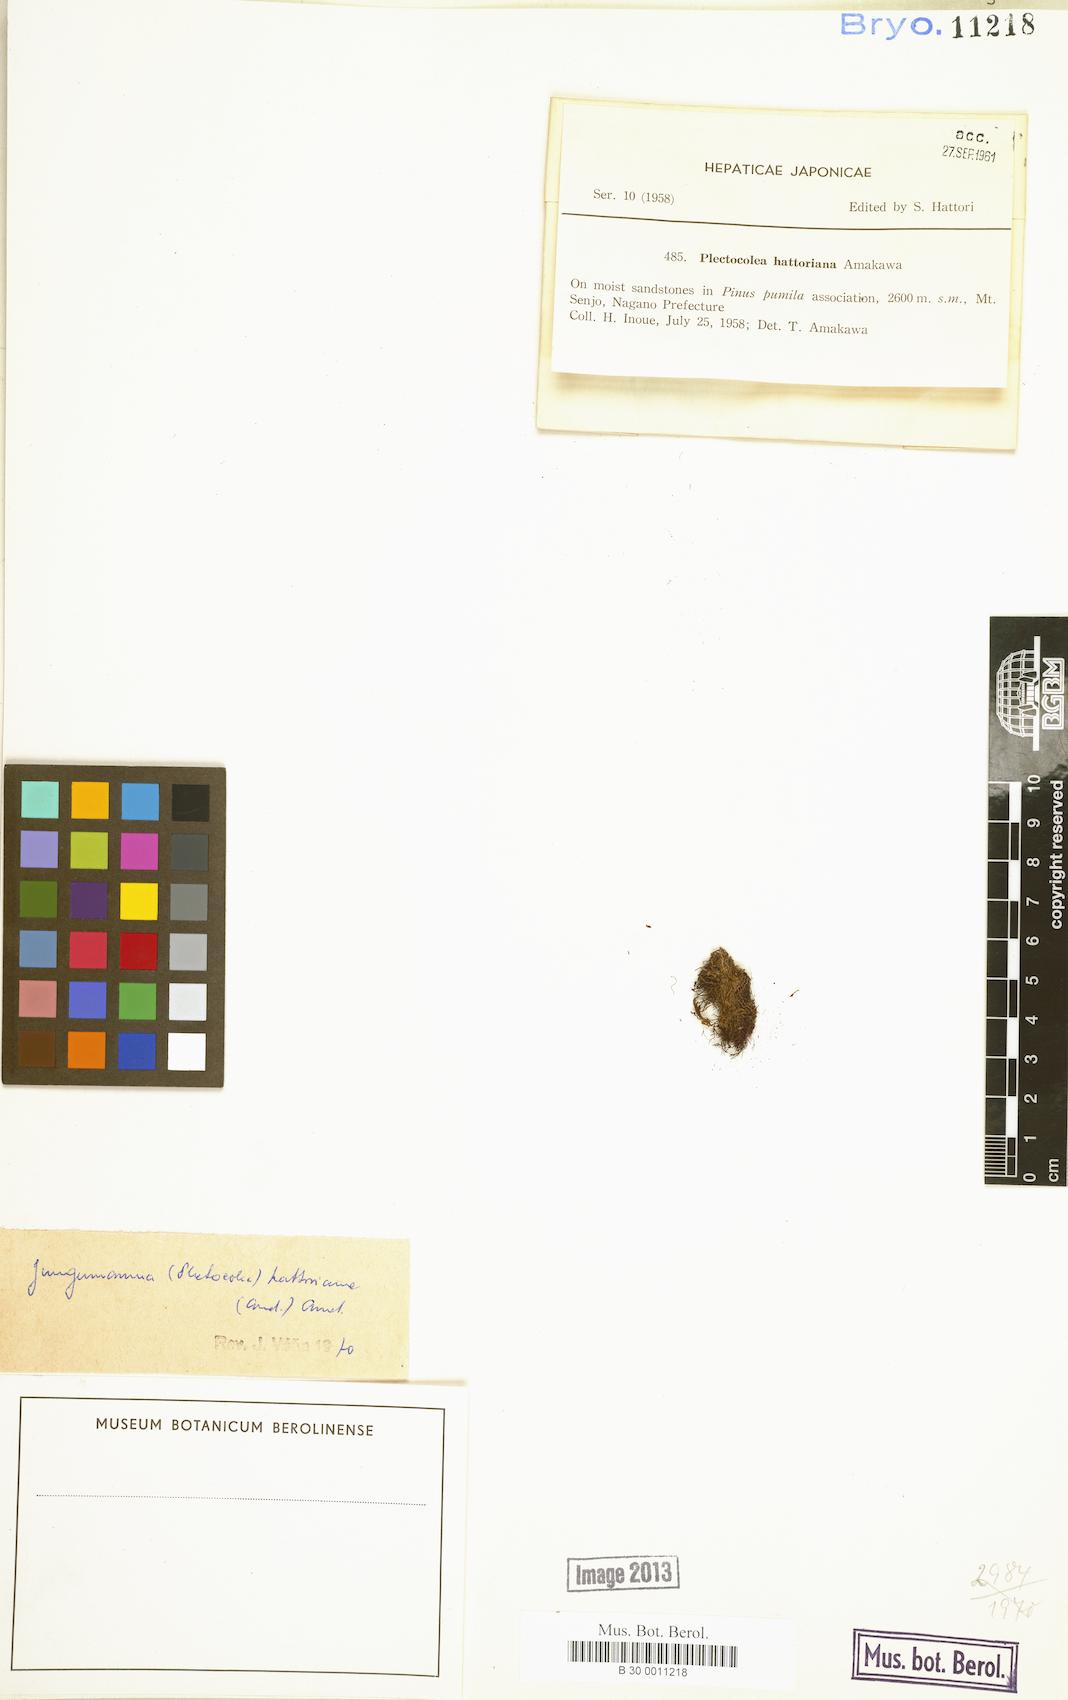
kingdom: Plantae
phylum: Marchantiophyta
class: Jungermanniopsida
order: Jungermanniales
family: Solenostomataceae
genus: Solenostoma
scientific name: Solenostoma hattorianum
